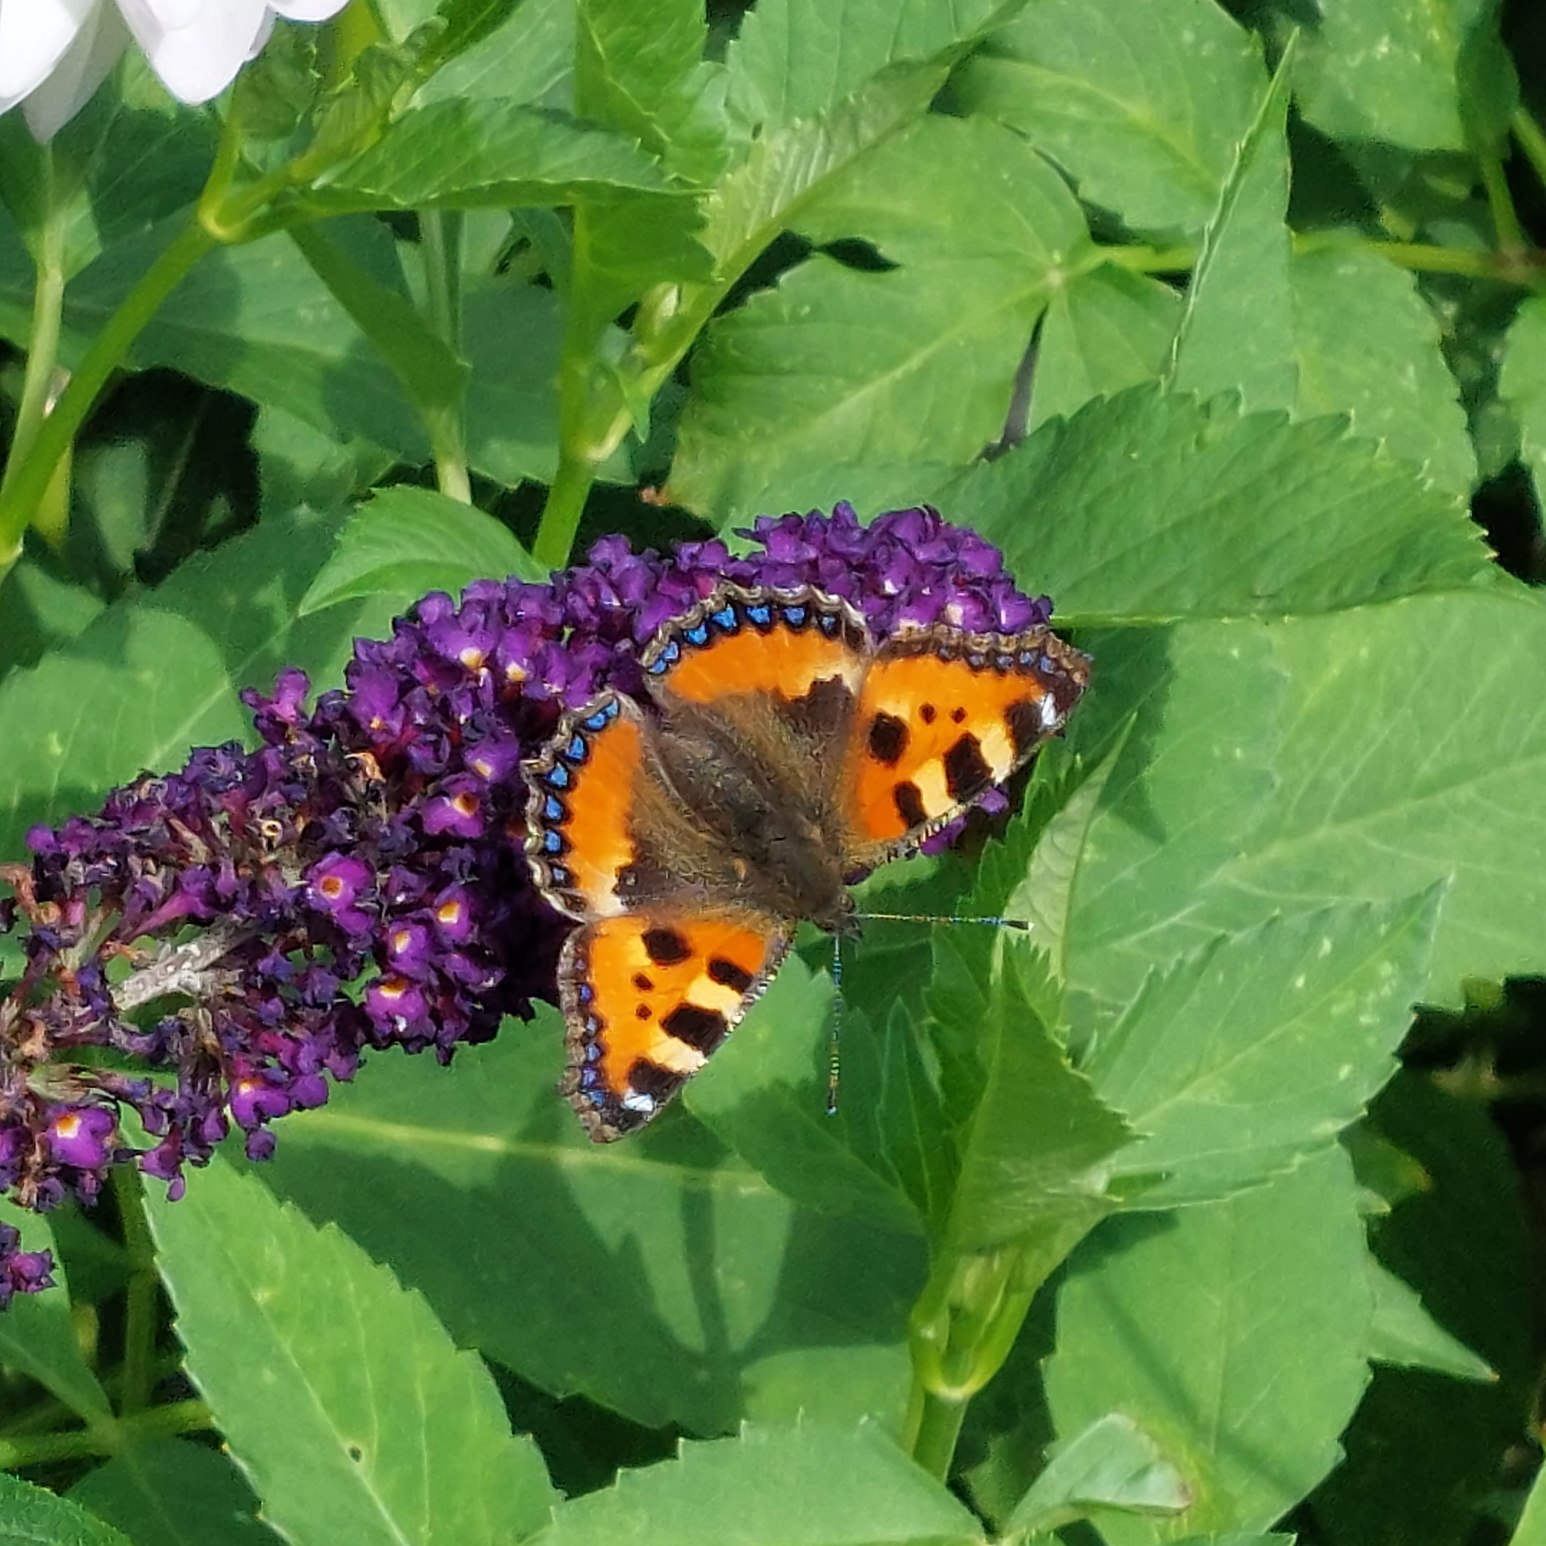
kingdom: Animalia
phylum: Arthropoda
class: Insecta
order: Lepidoptera
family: Nymphalidae
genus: Aglais
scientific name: Aglais urticae
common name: Nældens takvinge
